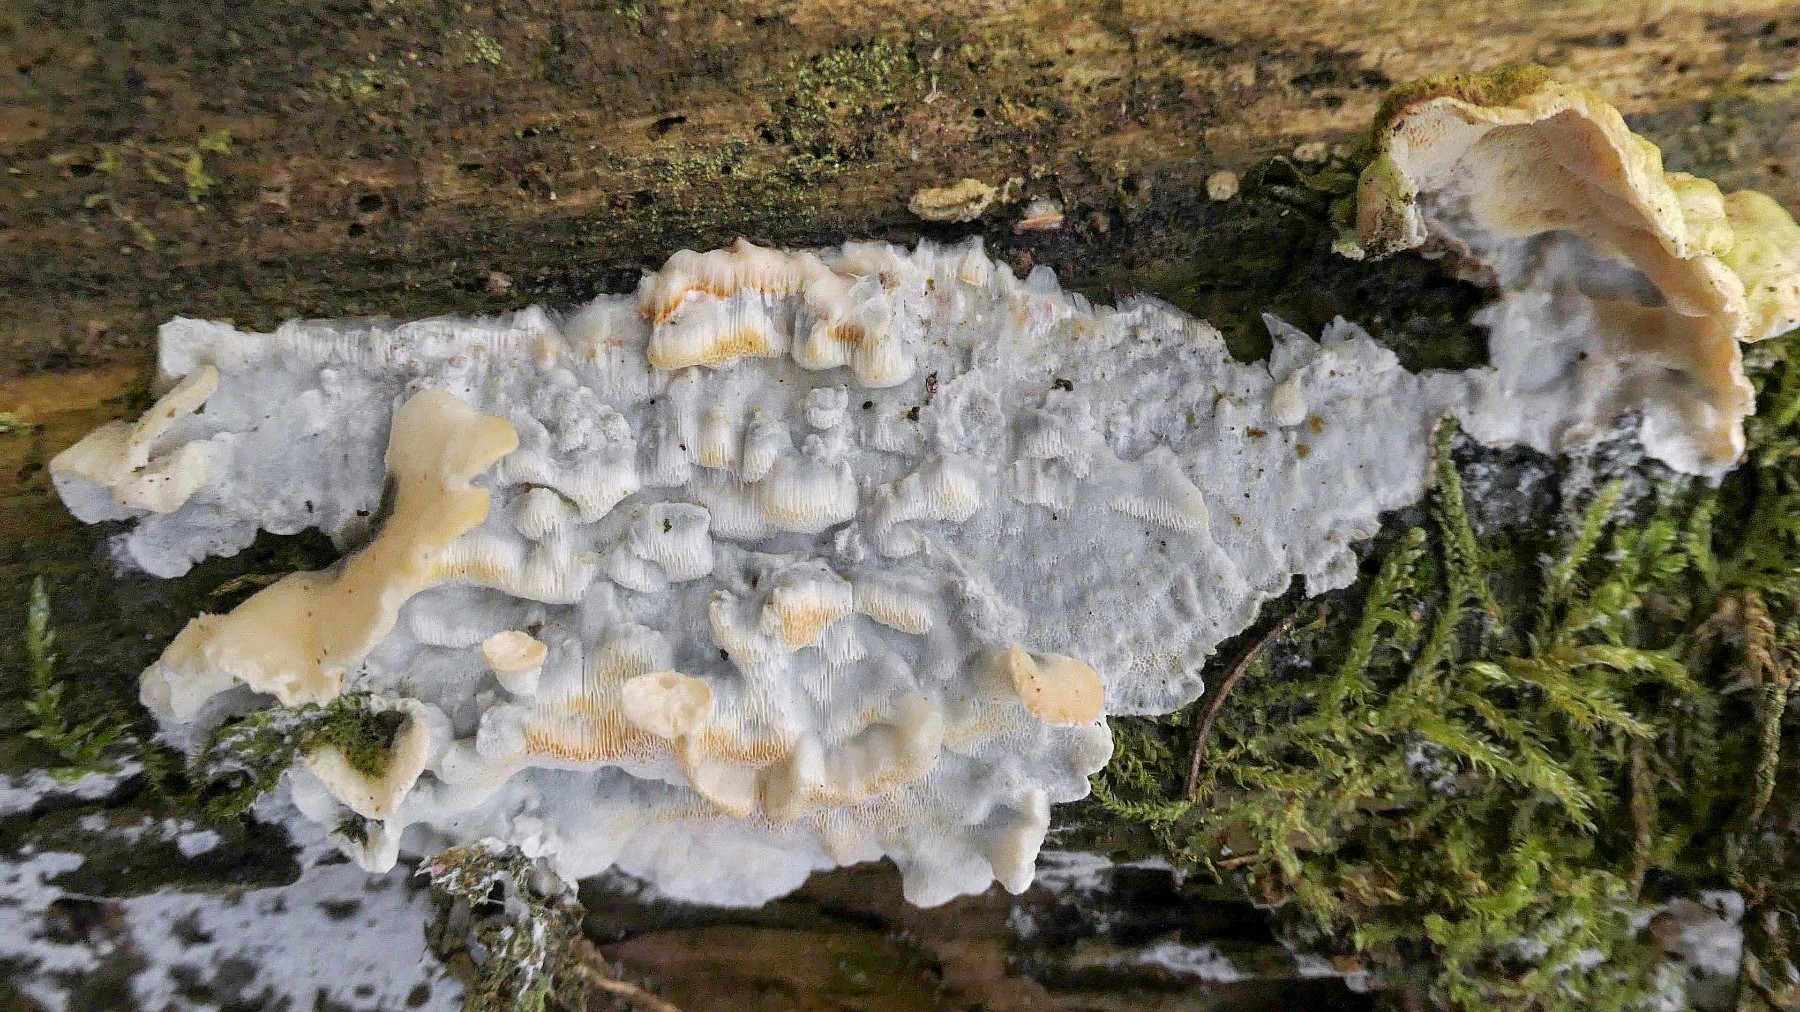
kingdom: Fungi
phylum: Basidiomycota
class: Agaricomycetes
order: Polyporales
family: Incrustoporiaceae
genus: Skeletocutis
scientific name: Skeletocutis amorpha
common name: orange krystalporesvamp
